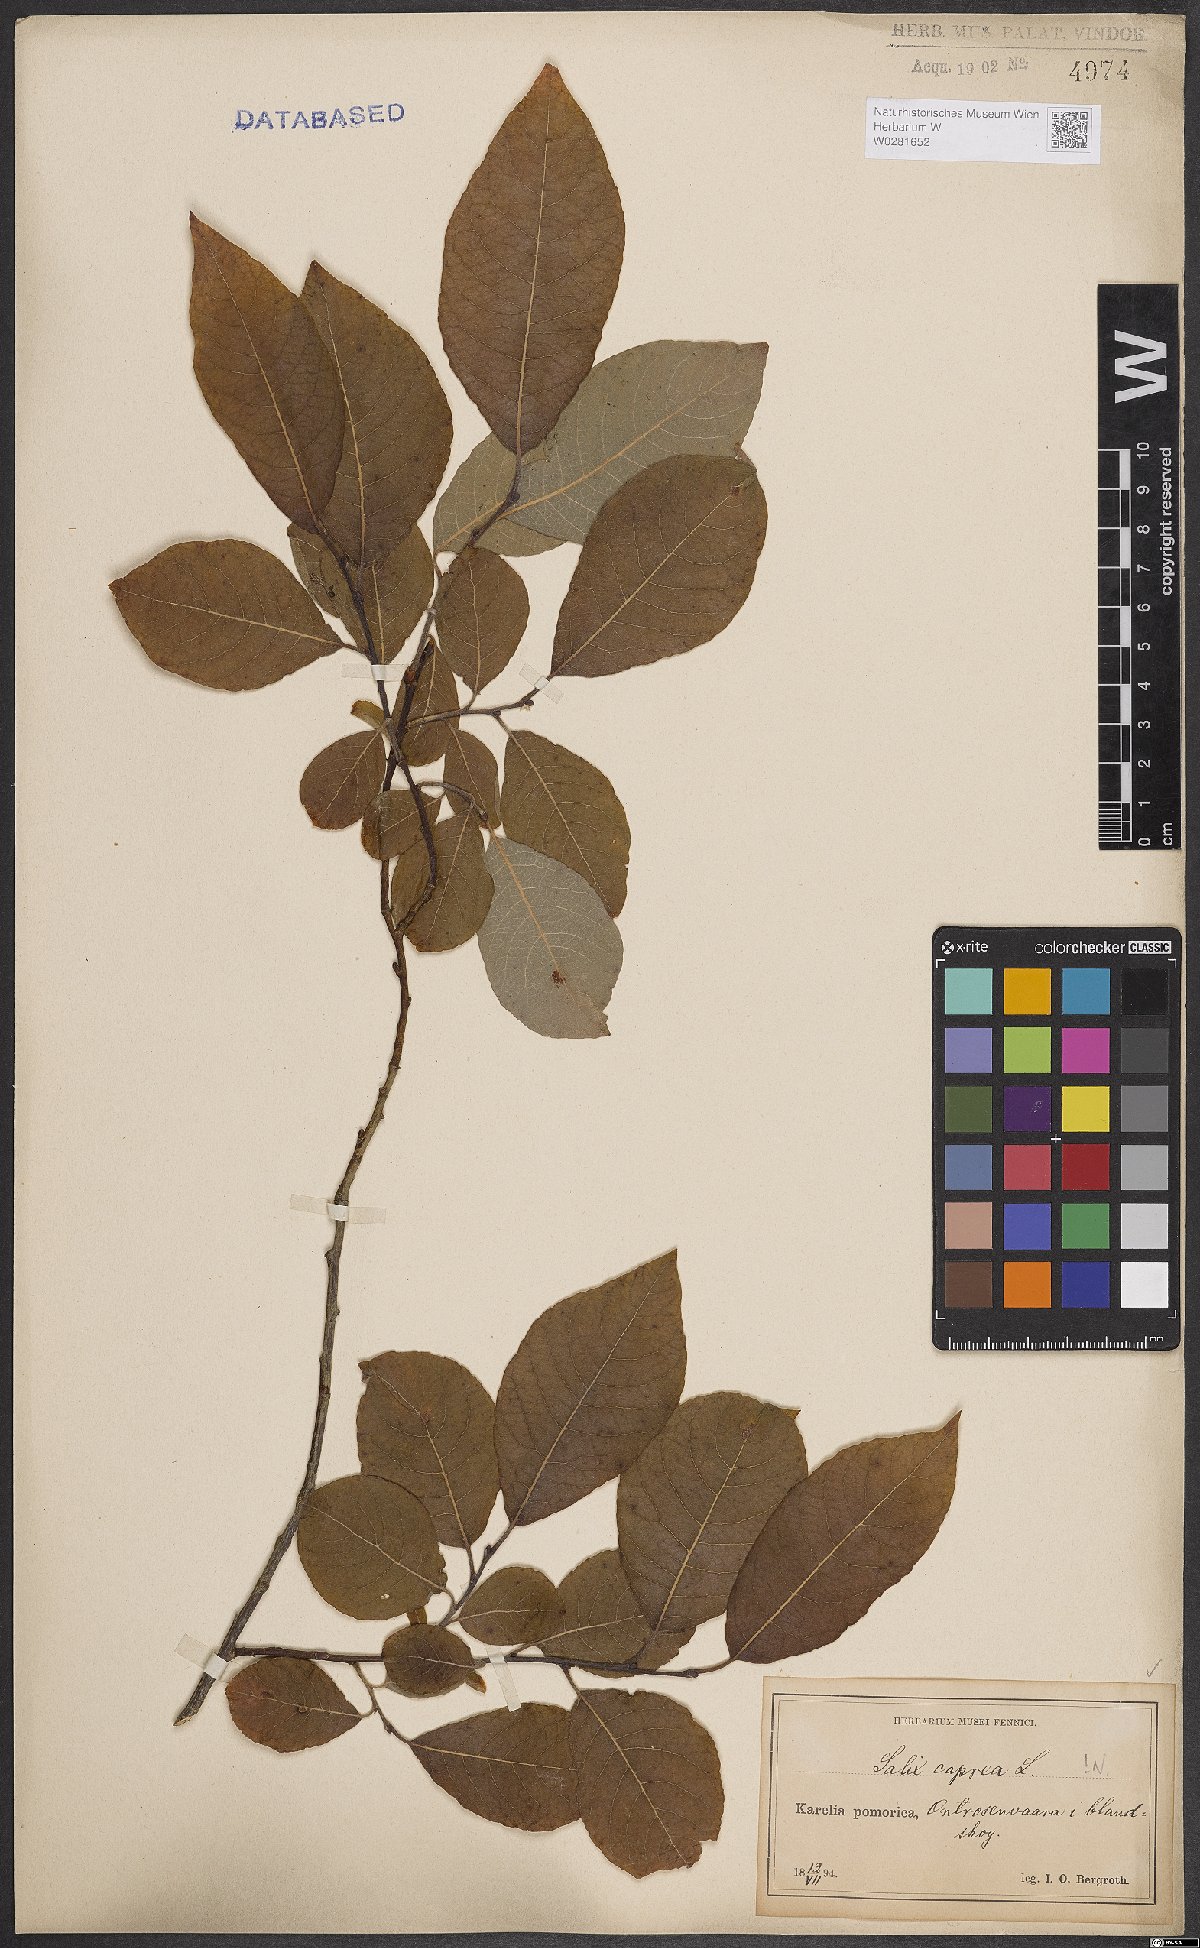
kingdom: Plantae
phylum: Tracheophyta
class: Magnoliopsida
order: Malpighiales
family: Salicaceae
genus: Salix
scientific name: Salix caprea
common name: Goat willow
